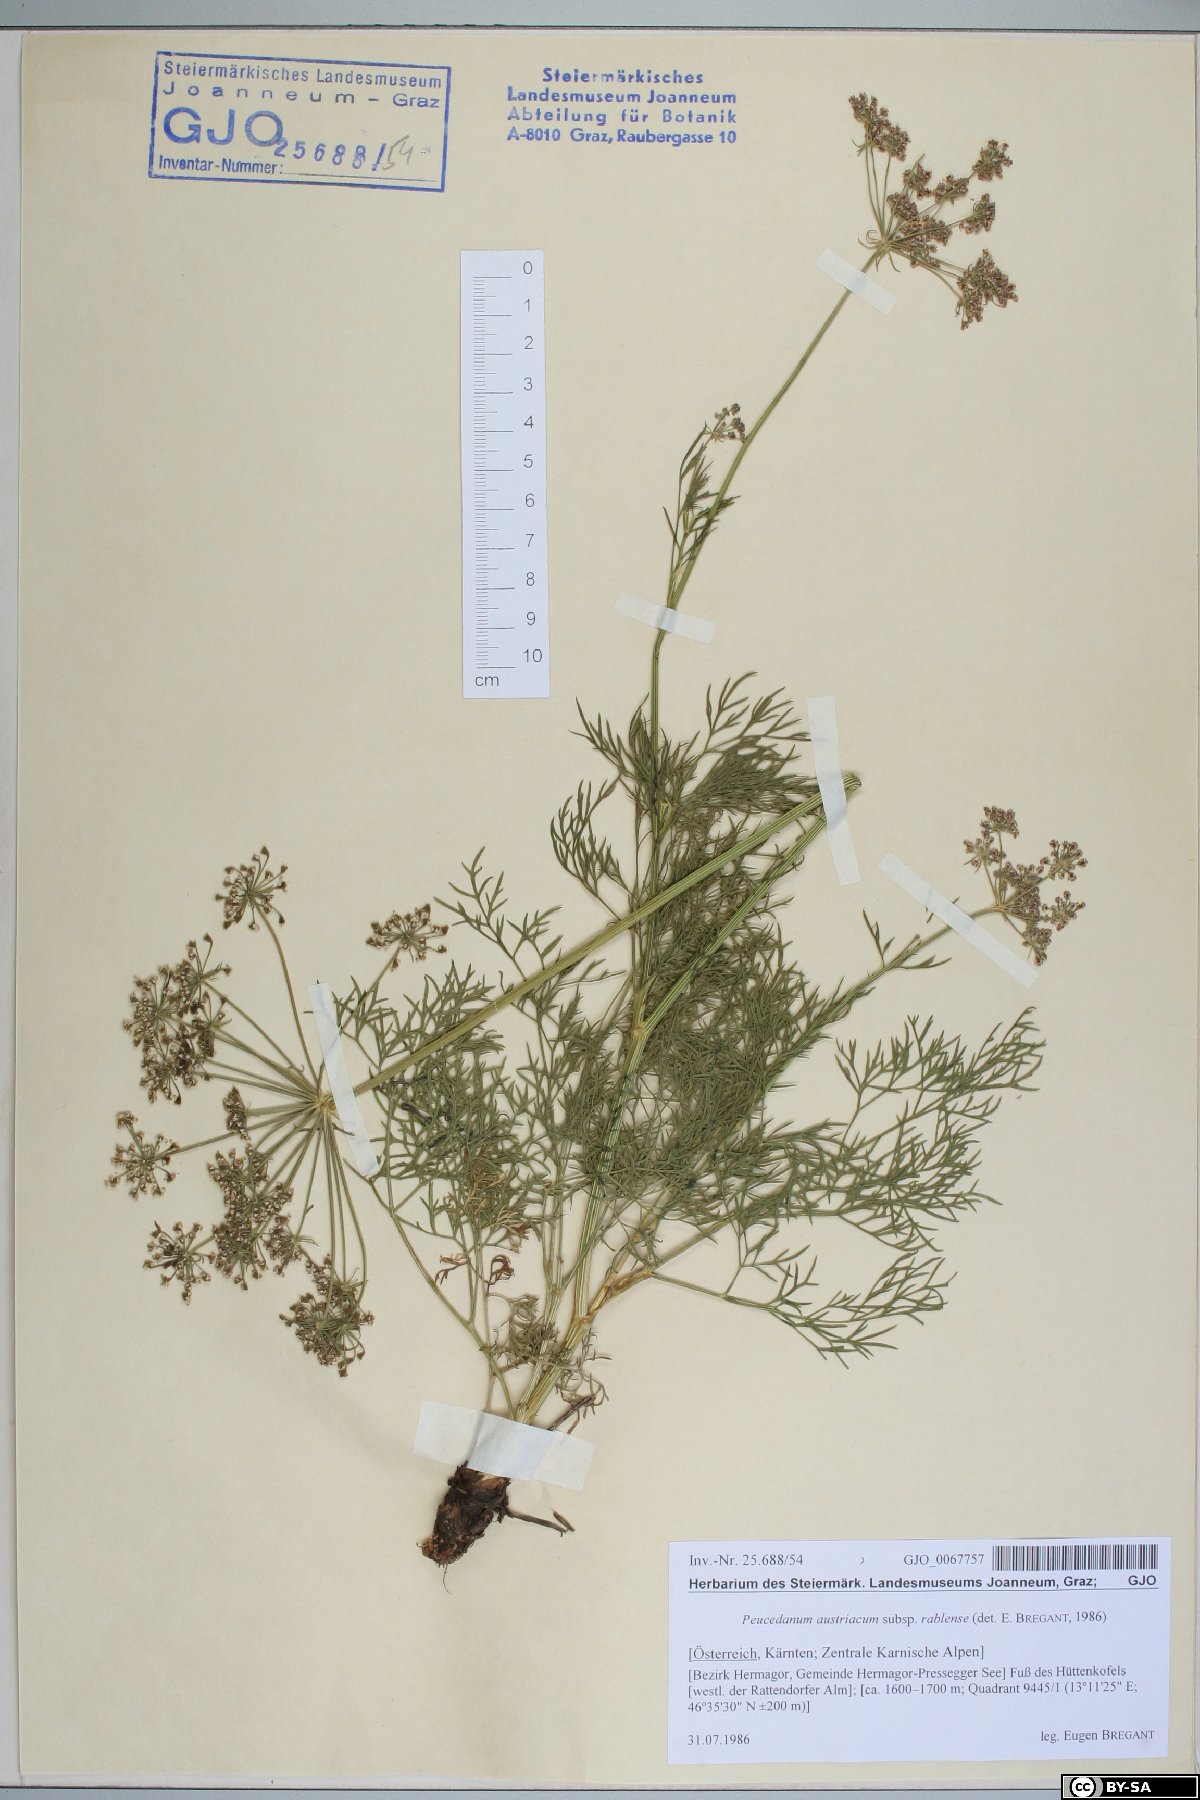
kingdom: Plantae
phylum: Tracheophyta
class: Magnoliopsida
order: Apiales
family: Apiaceae
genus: Peucedanum
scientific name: Peucedanum rablense
